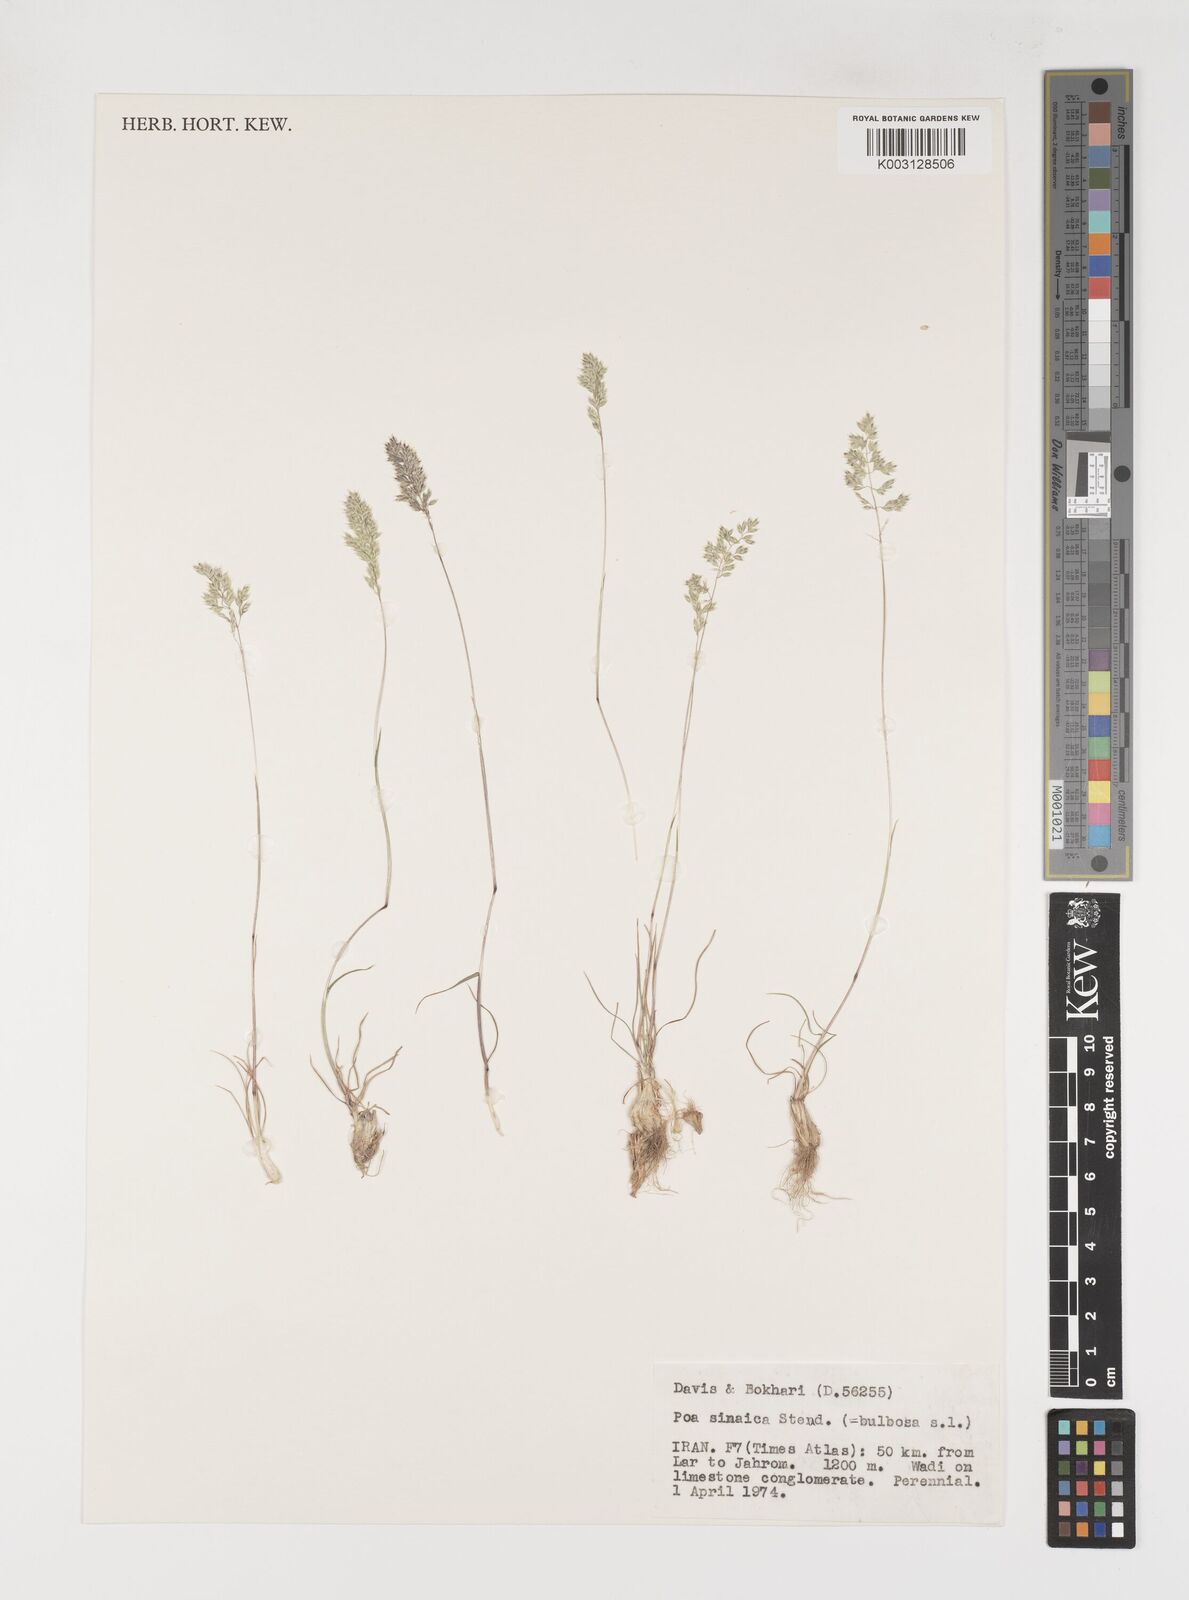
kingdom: Plantae
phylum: Tracheophyta
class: Liliopsida
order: Poales
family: Poaceae
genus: Poa
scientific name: Poa sinaica
